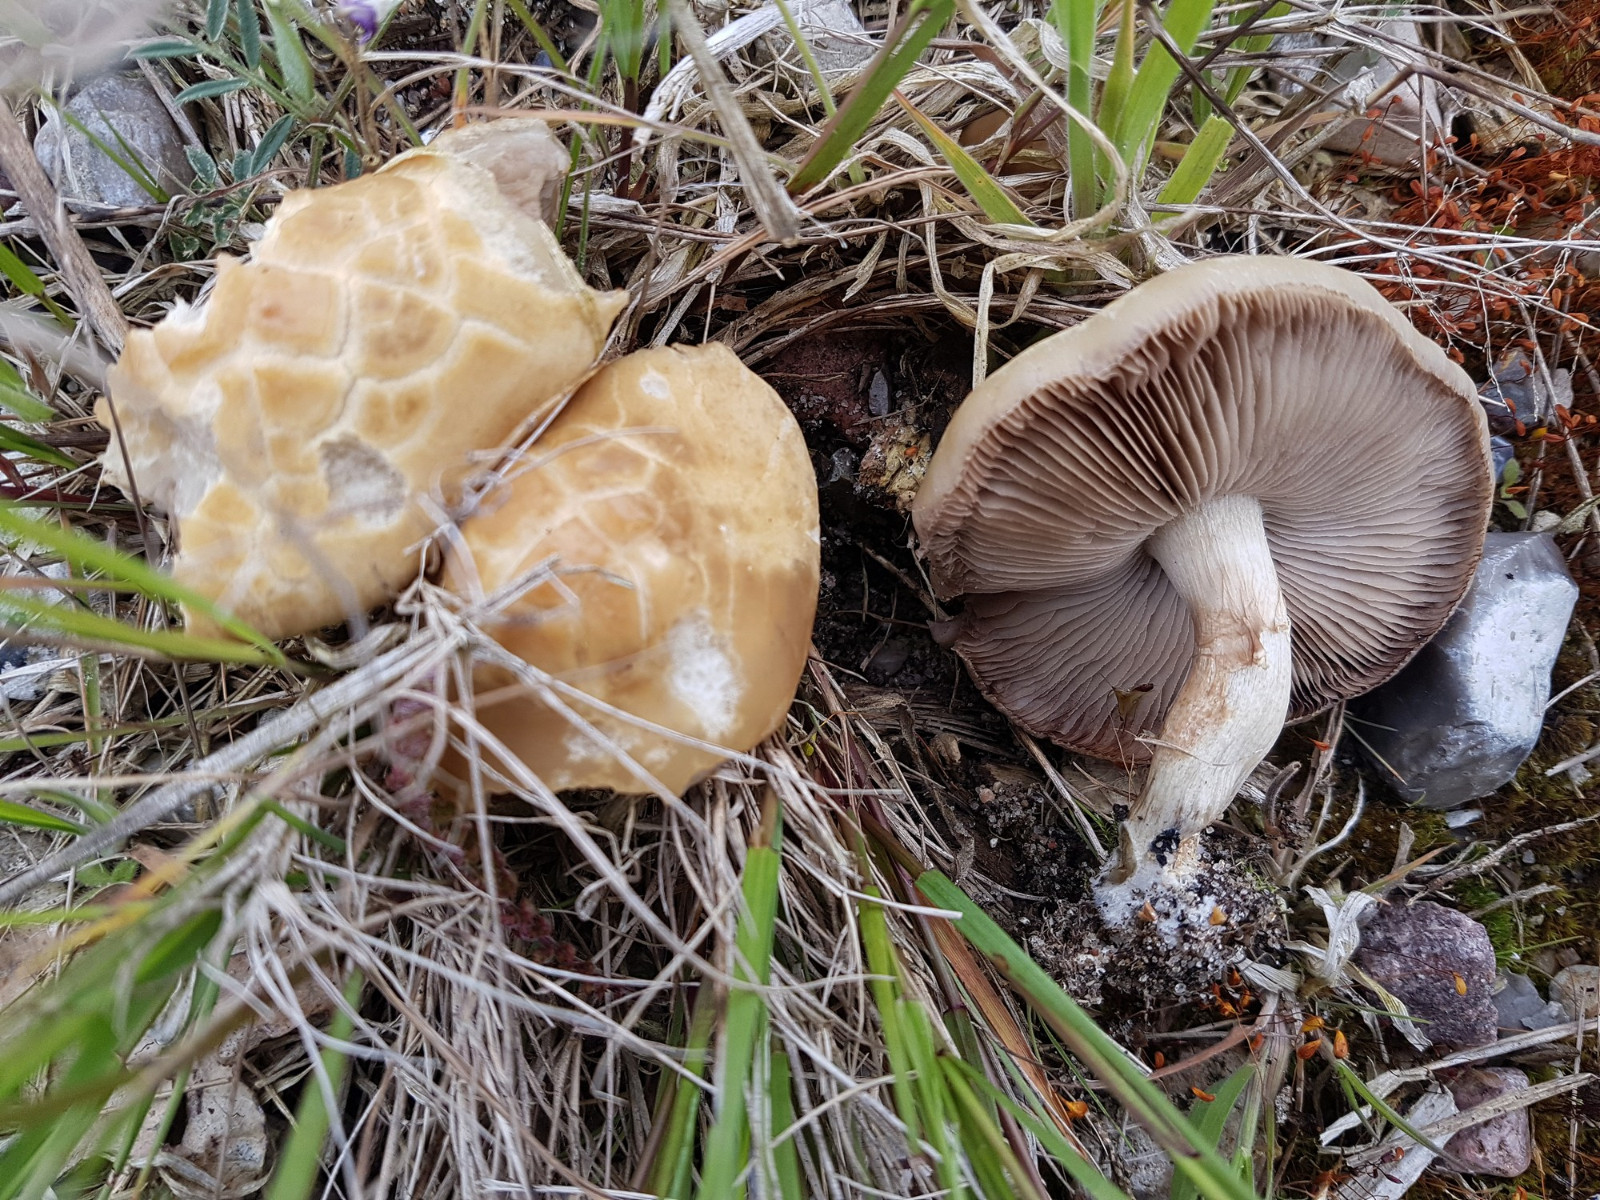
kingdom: Fungi
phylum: Basidiomycota
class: Agaricomycetes
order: Agaricales
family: Strophariaceae
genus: Agrocybe
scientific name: Agrocybe praecox
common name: tidlig agerhat
